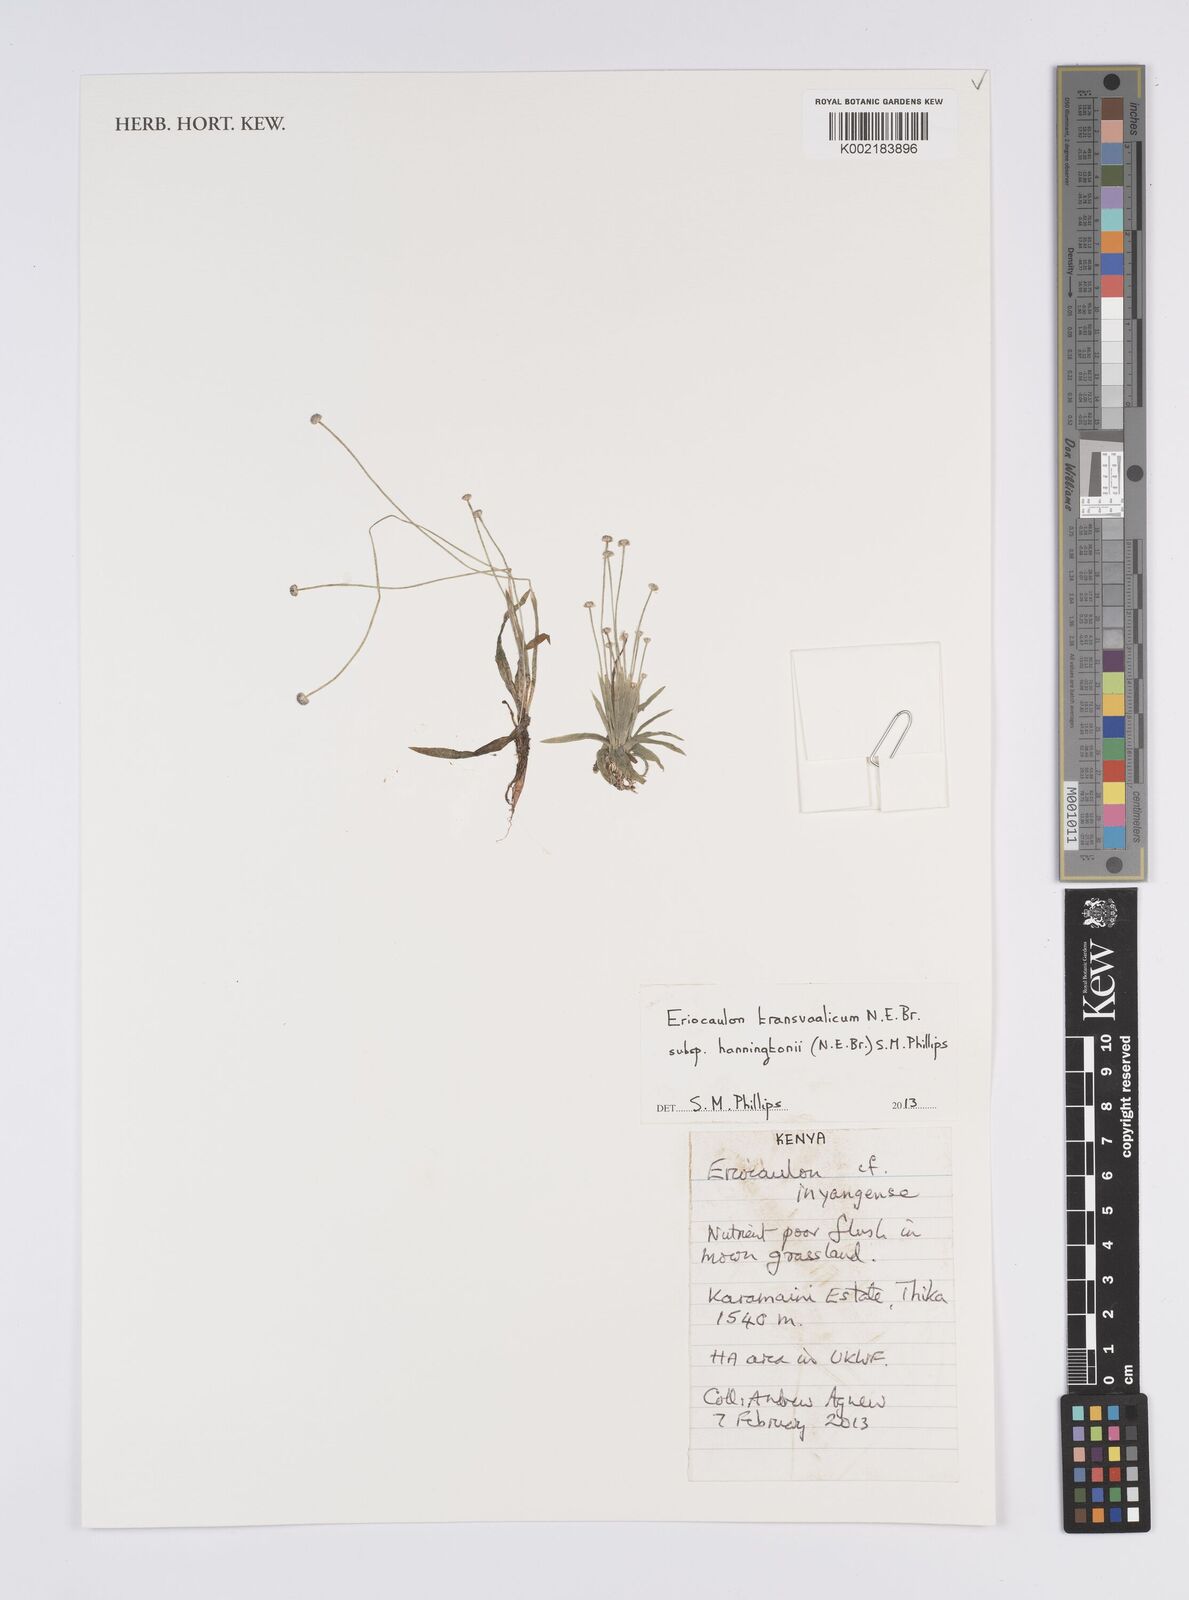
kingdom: Plantae
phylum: Tracheophyta
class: Liliopsida
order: Poales
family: Eriocaulaceae
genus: Eriocaulon
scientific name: Eriocaulon transvaalicum
